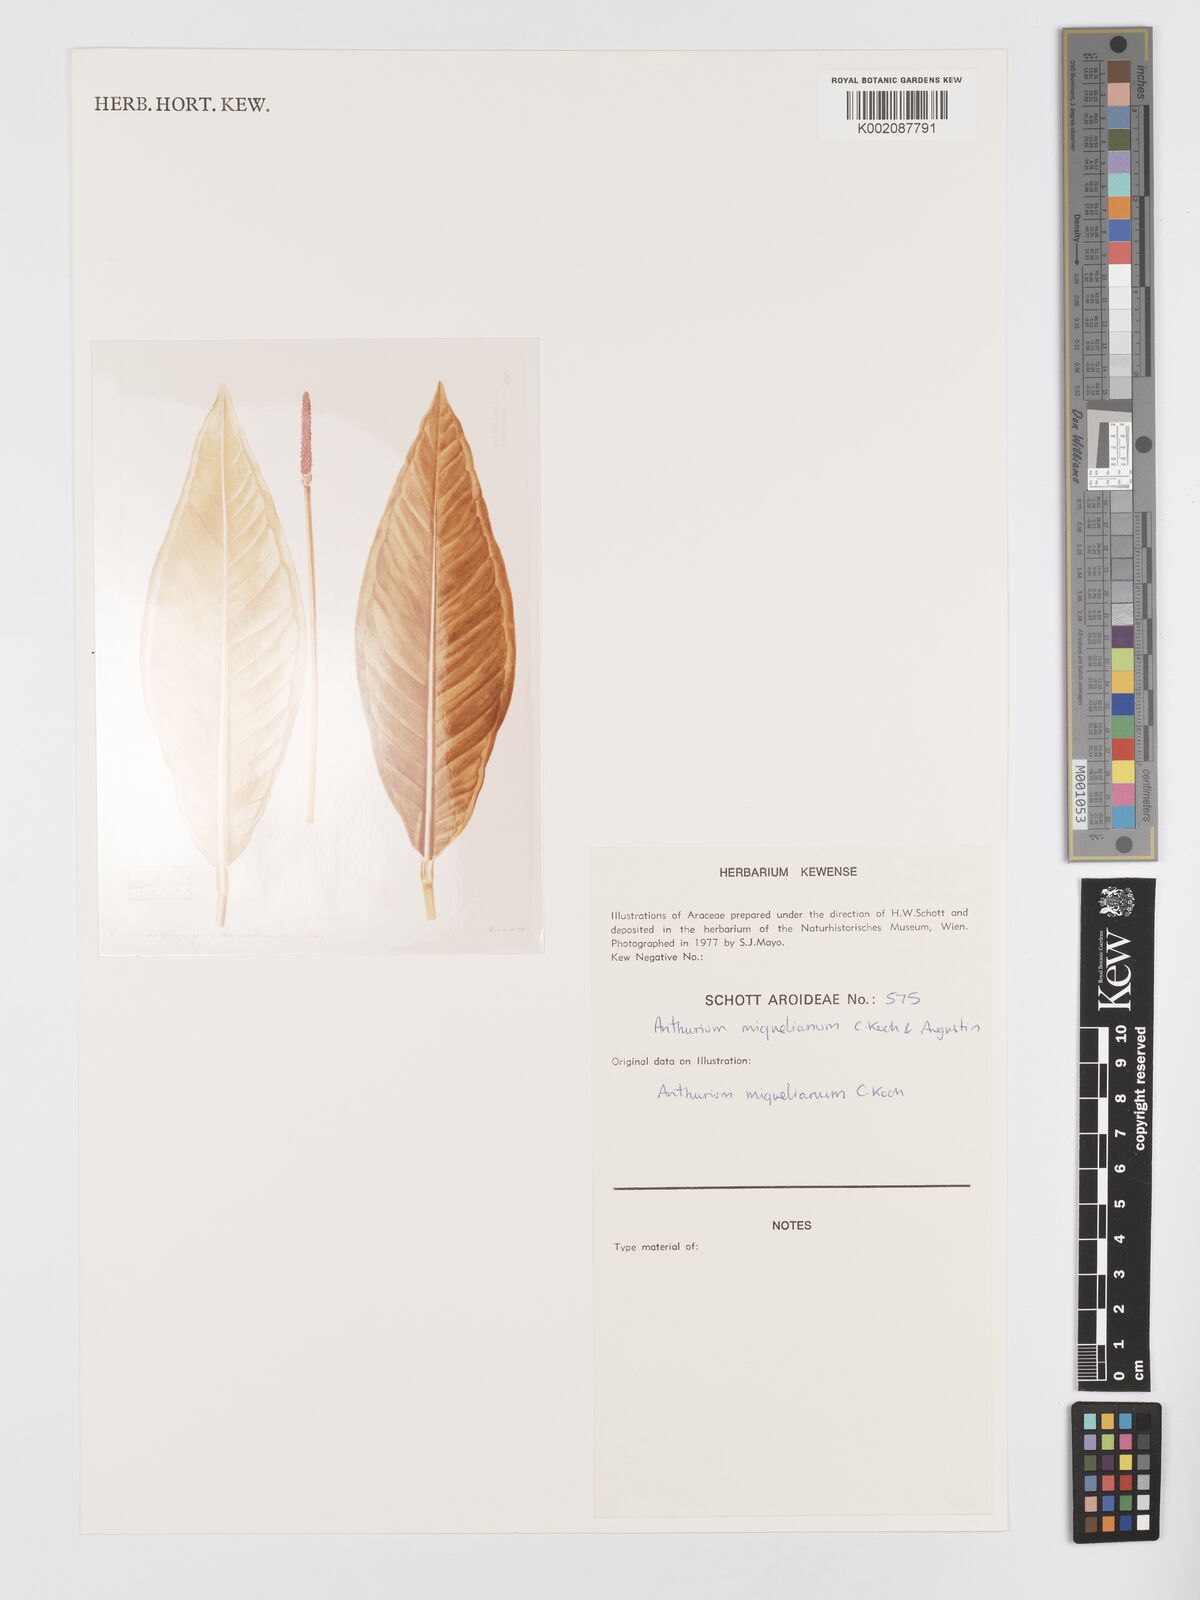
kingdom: Plantae
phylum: Tracheophyta
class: Liliopsida
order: Alismatales
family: Araceae
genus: Anthurium
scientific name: Anthurium parasiticum
